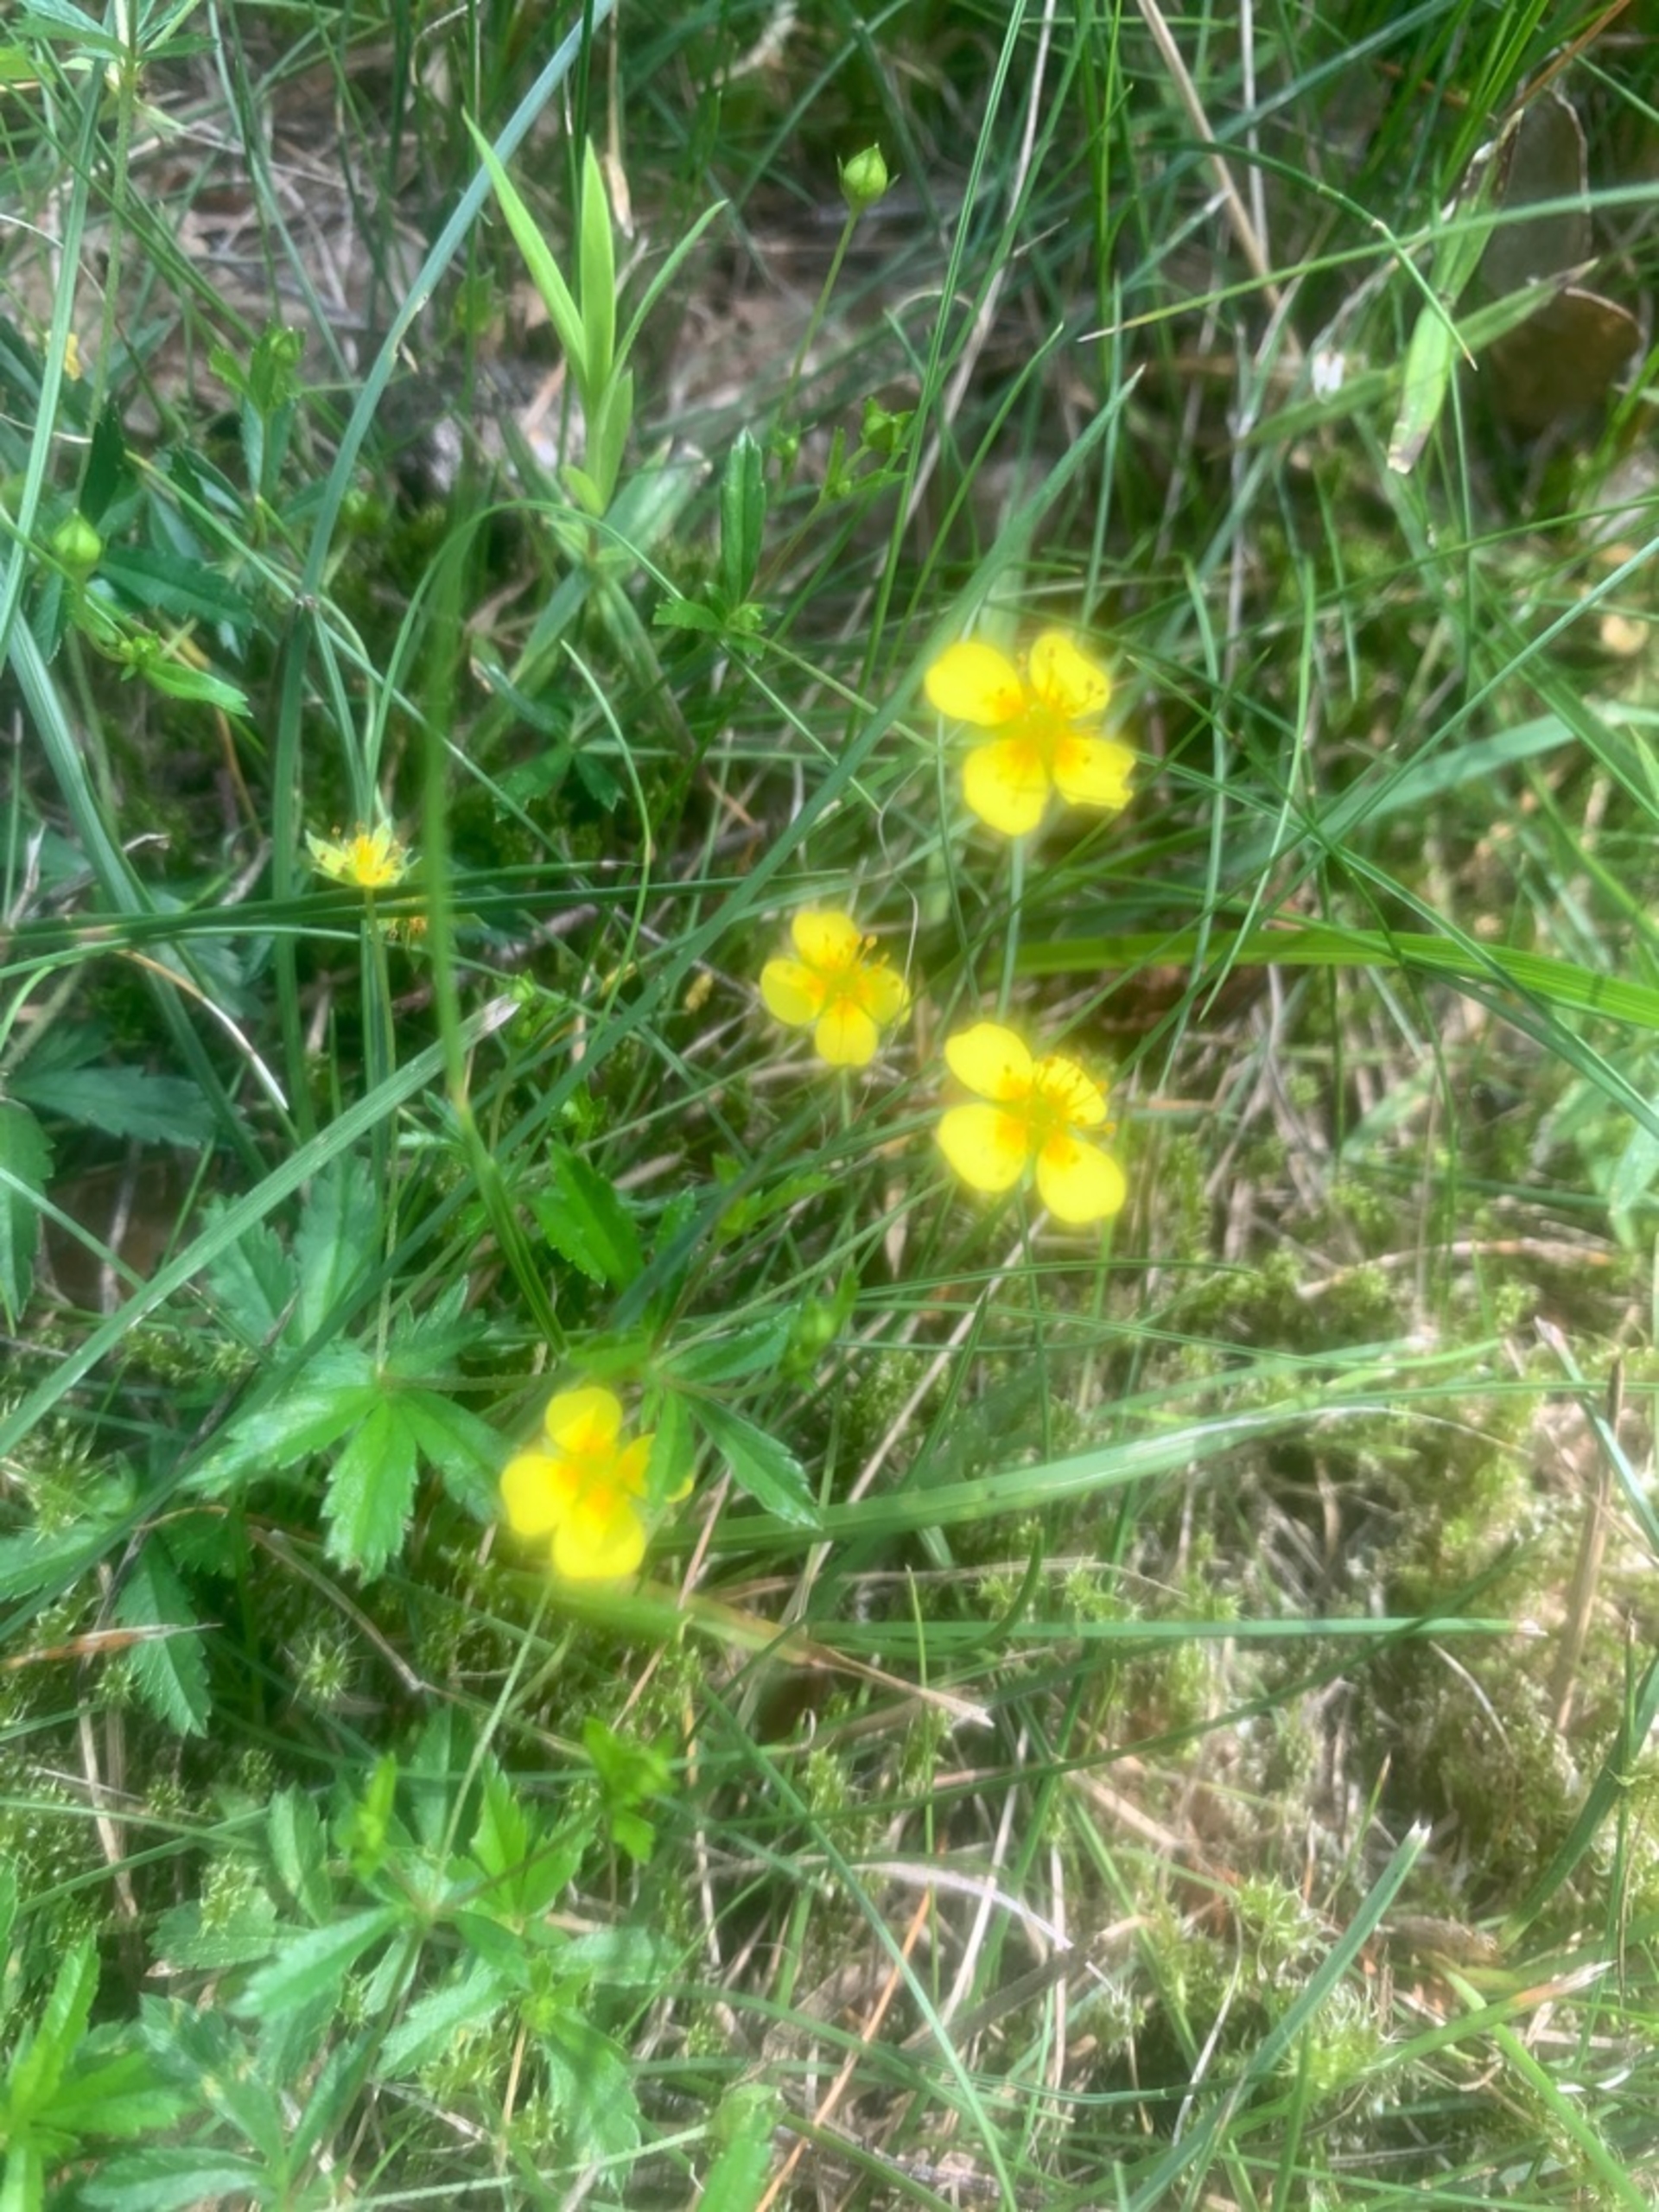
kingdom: Plantae
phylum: Tracheophyta
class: Magnoliopsida
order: Rosales
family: Rosaceae
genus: Potentilla
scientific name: Potentilla erecta
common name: Tormentil
